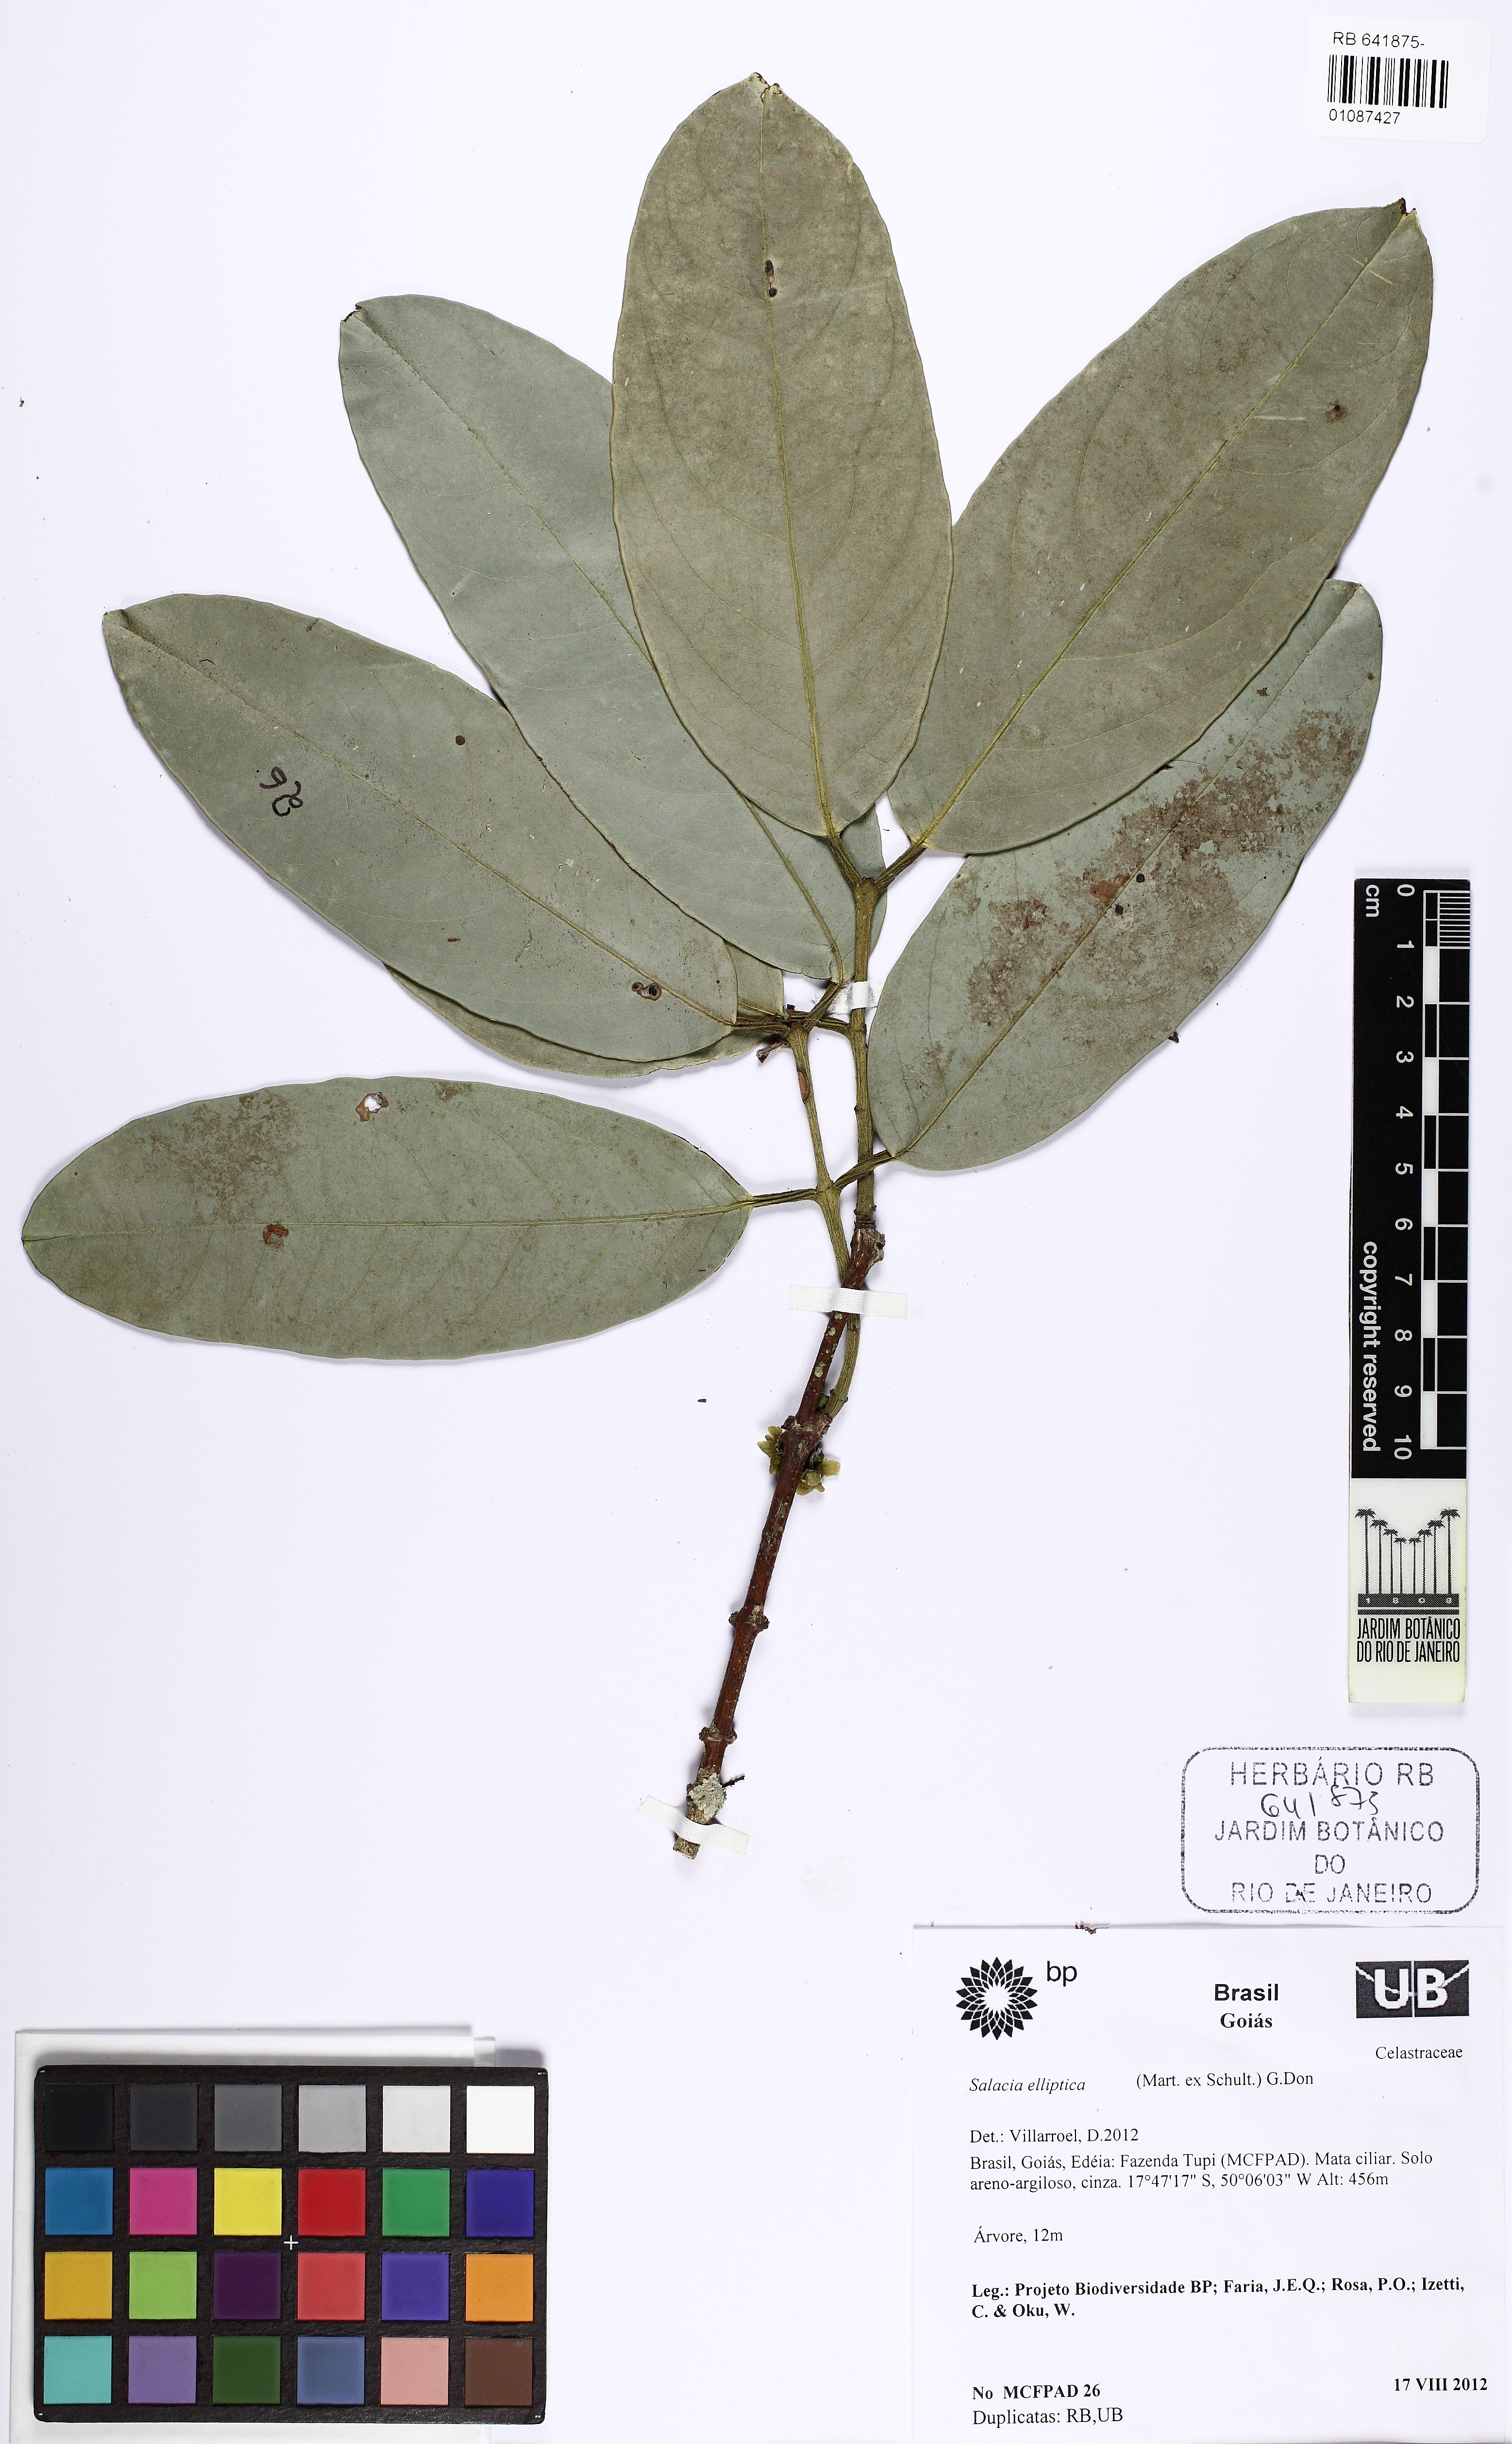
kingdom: Plantae
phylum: Tracheophyta
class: Magnoliopsida
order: Celastrales
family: Celastraceae
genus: Salacia
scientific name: Salacia elliptica
